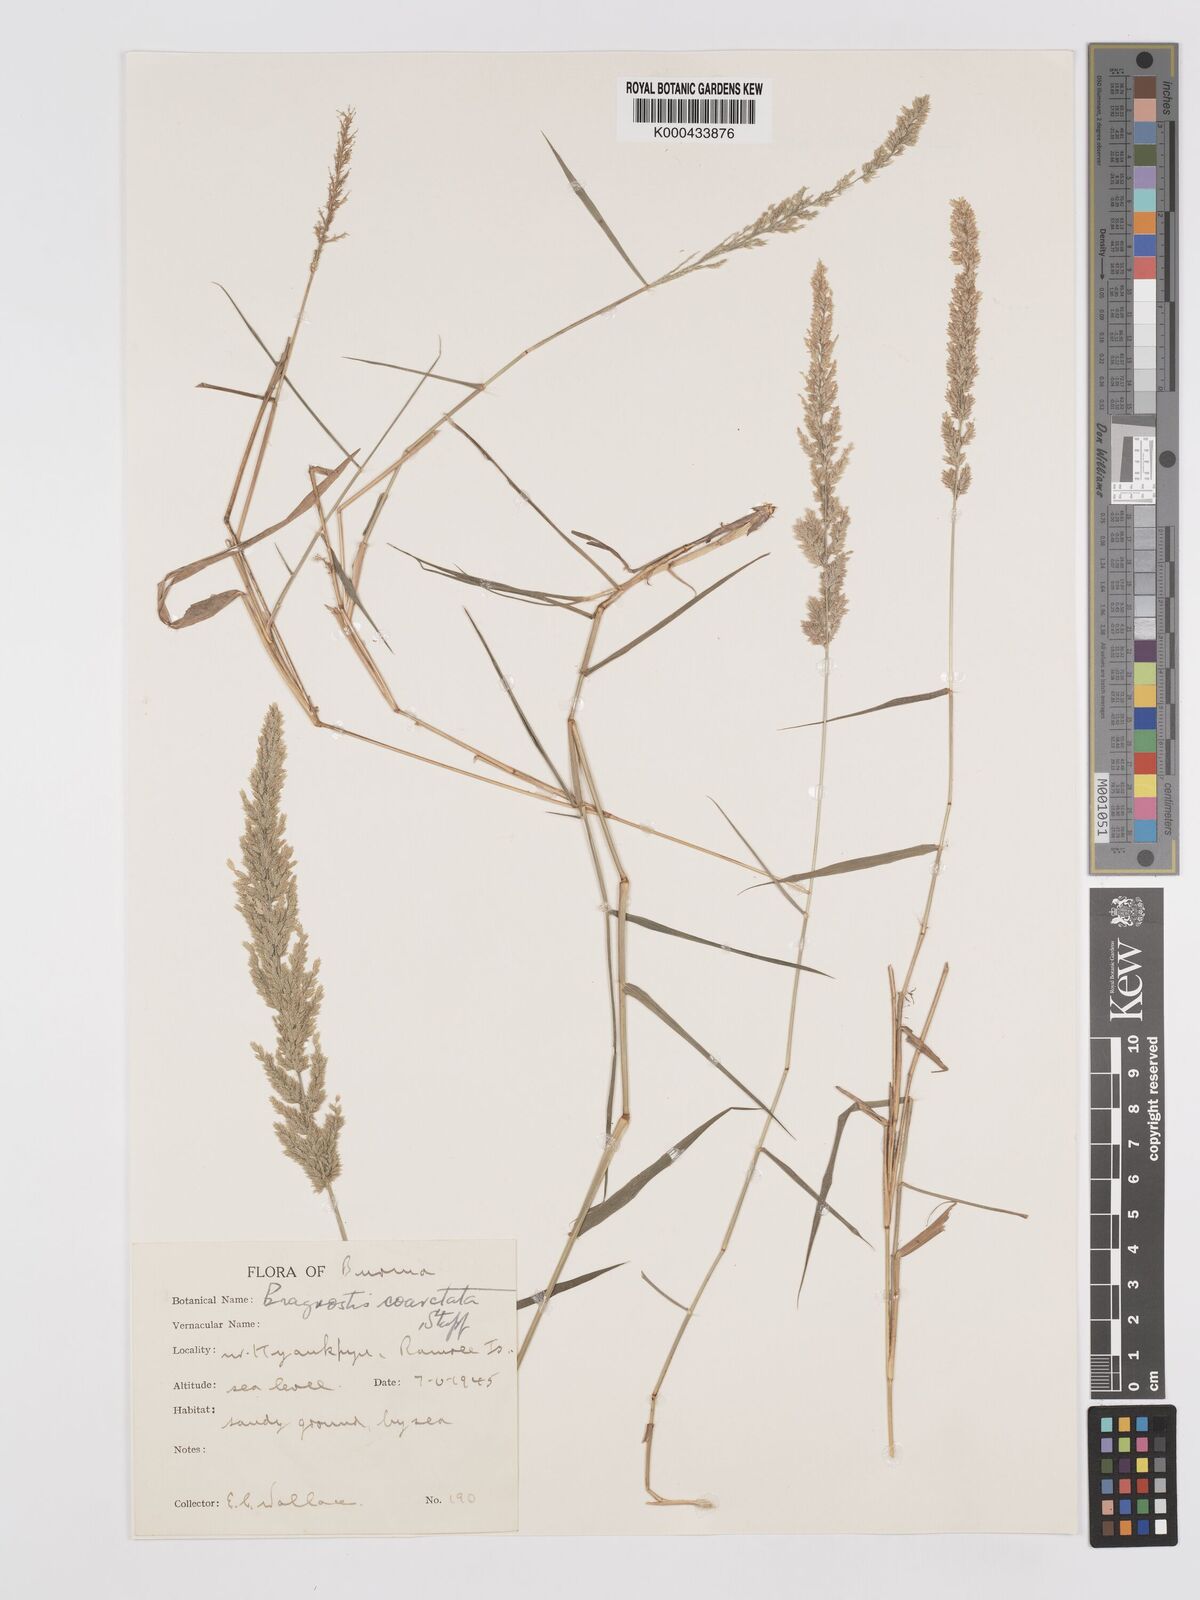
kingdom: Plantae
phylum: Tracheophyta
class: Liliopsida
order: Poales
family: Poaceae
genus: Eragrostis
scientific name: Eragrostis coarctata
